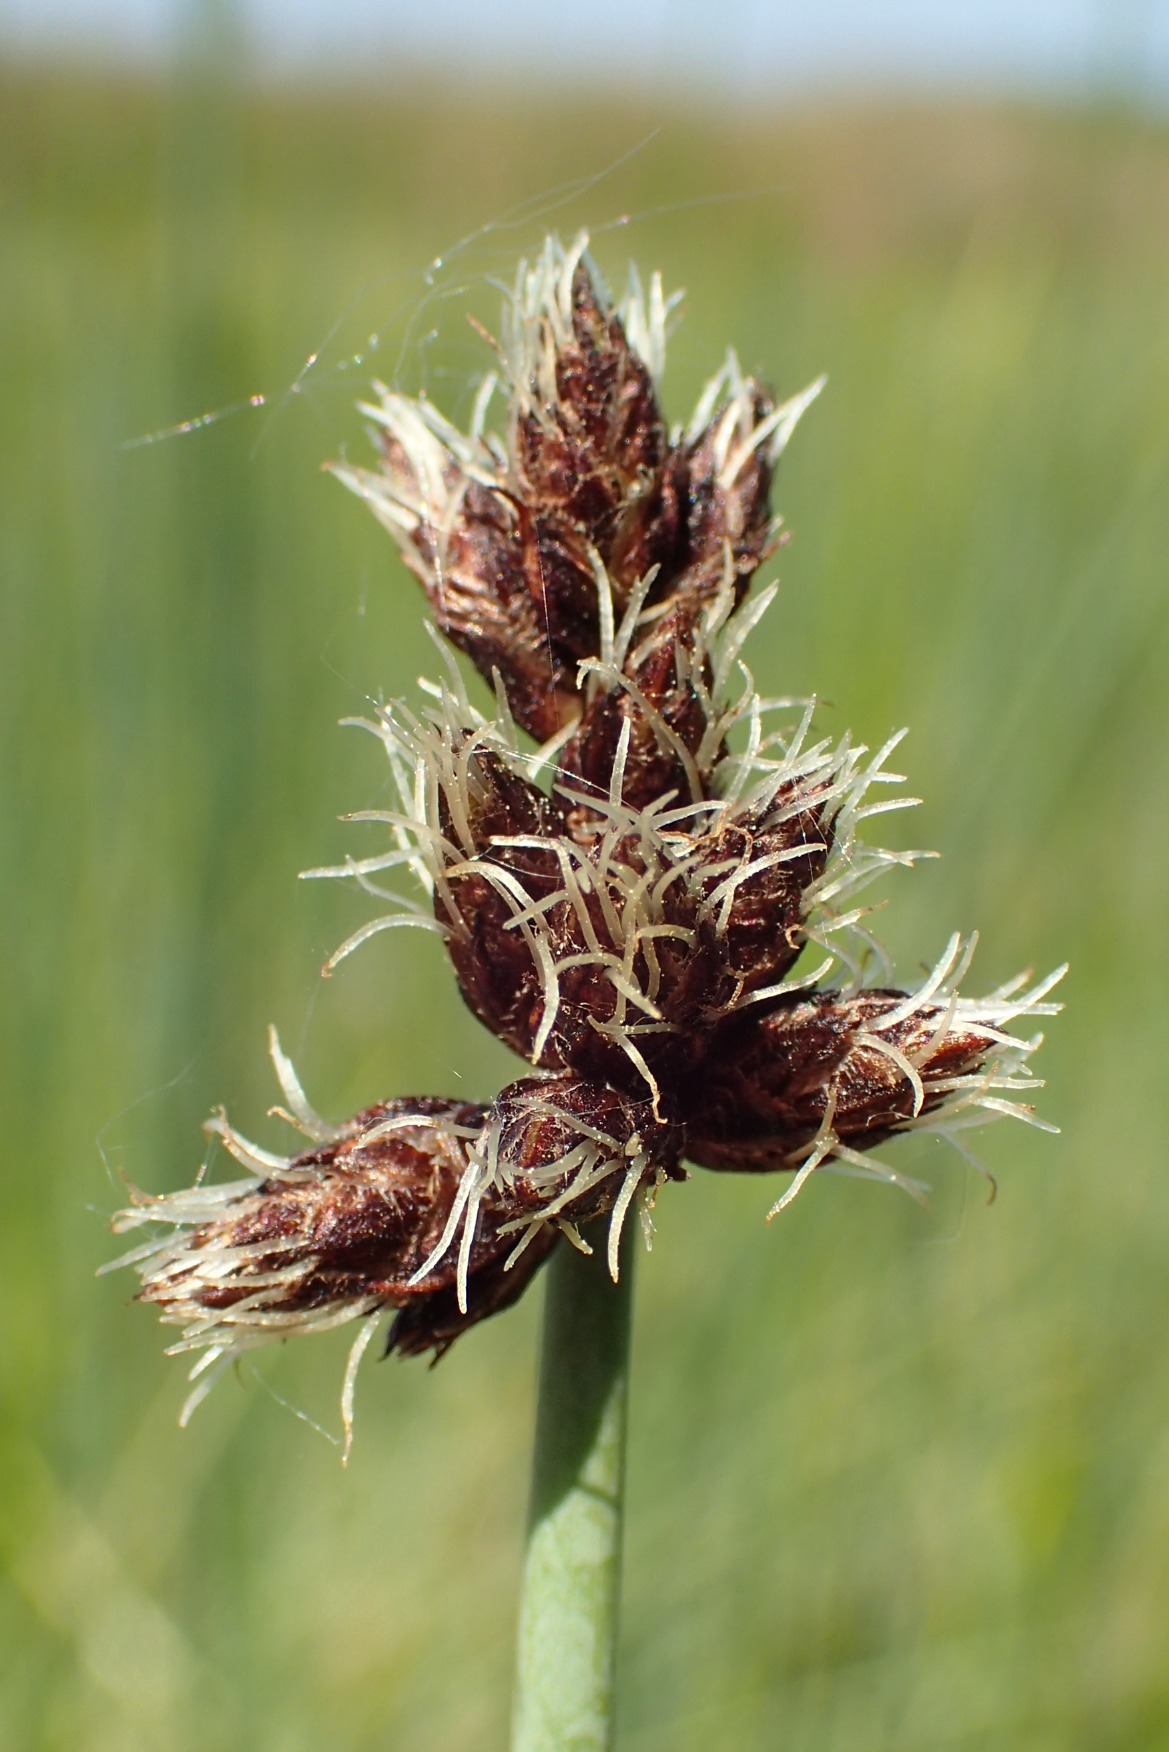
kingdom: Plantae
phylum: Tracheophyta
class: Liliopsida
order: Poales
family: Cyperaceae
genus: Schoenoplectus
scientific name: Schoenoplectus tabernaemontani
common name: Blågrøn kogleaks
